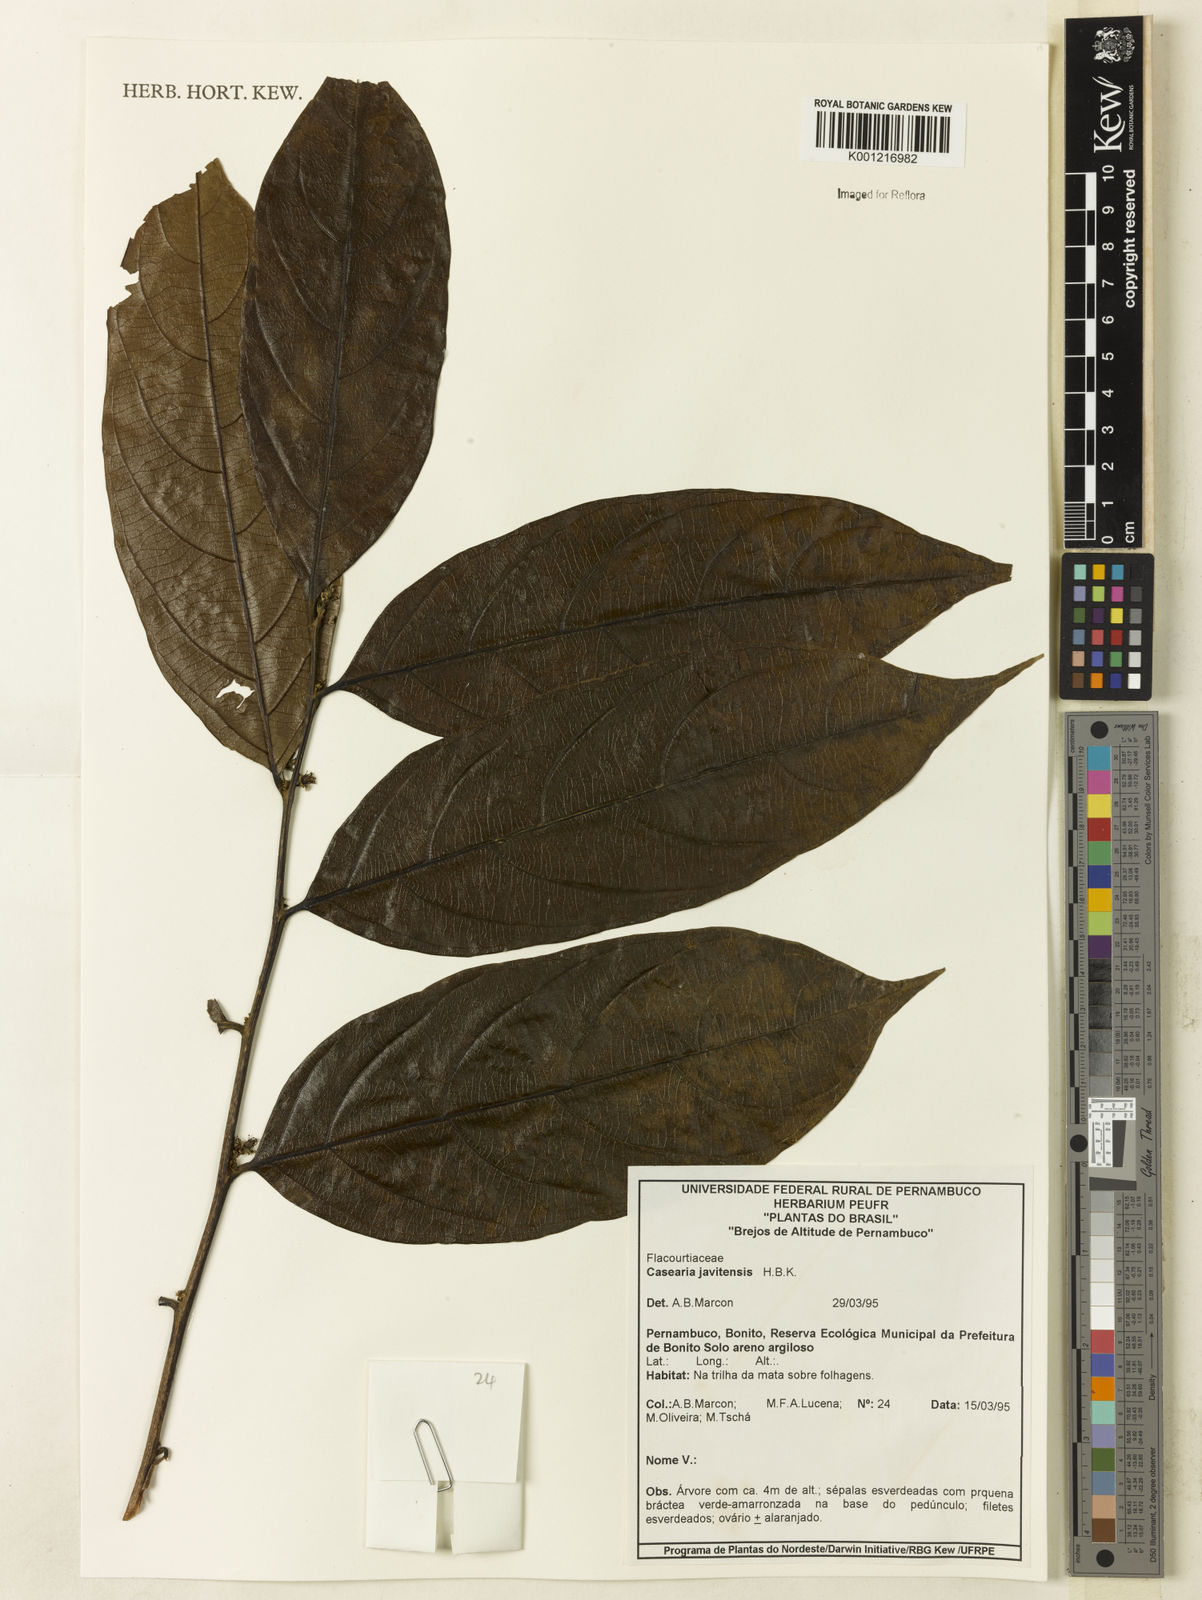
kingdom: Plantae
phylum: Tracheophyta
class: Magnoliopsida
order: Malpighiales
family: Salicaceae
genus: Piparea
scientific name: Piparea multiflora
